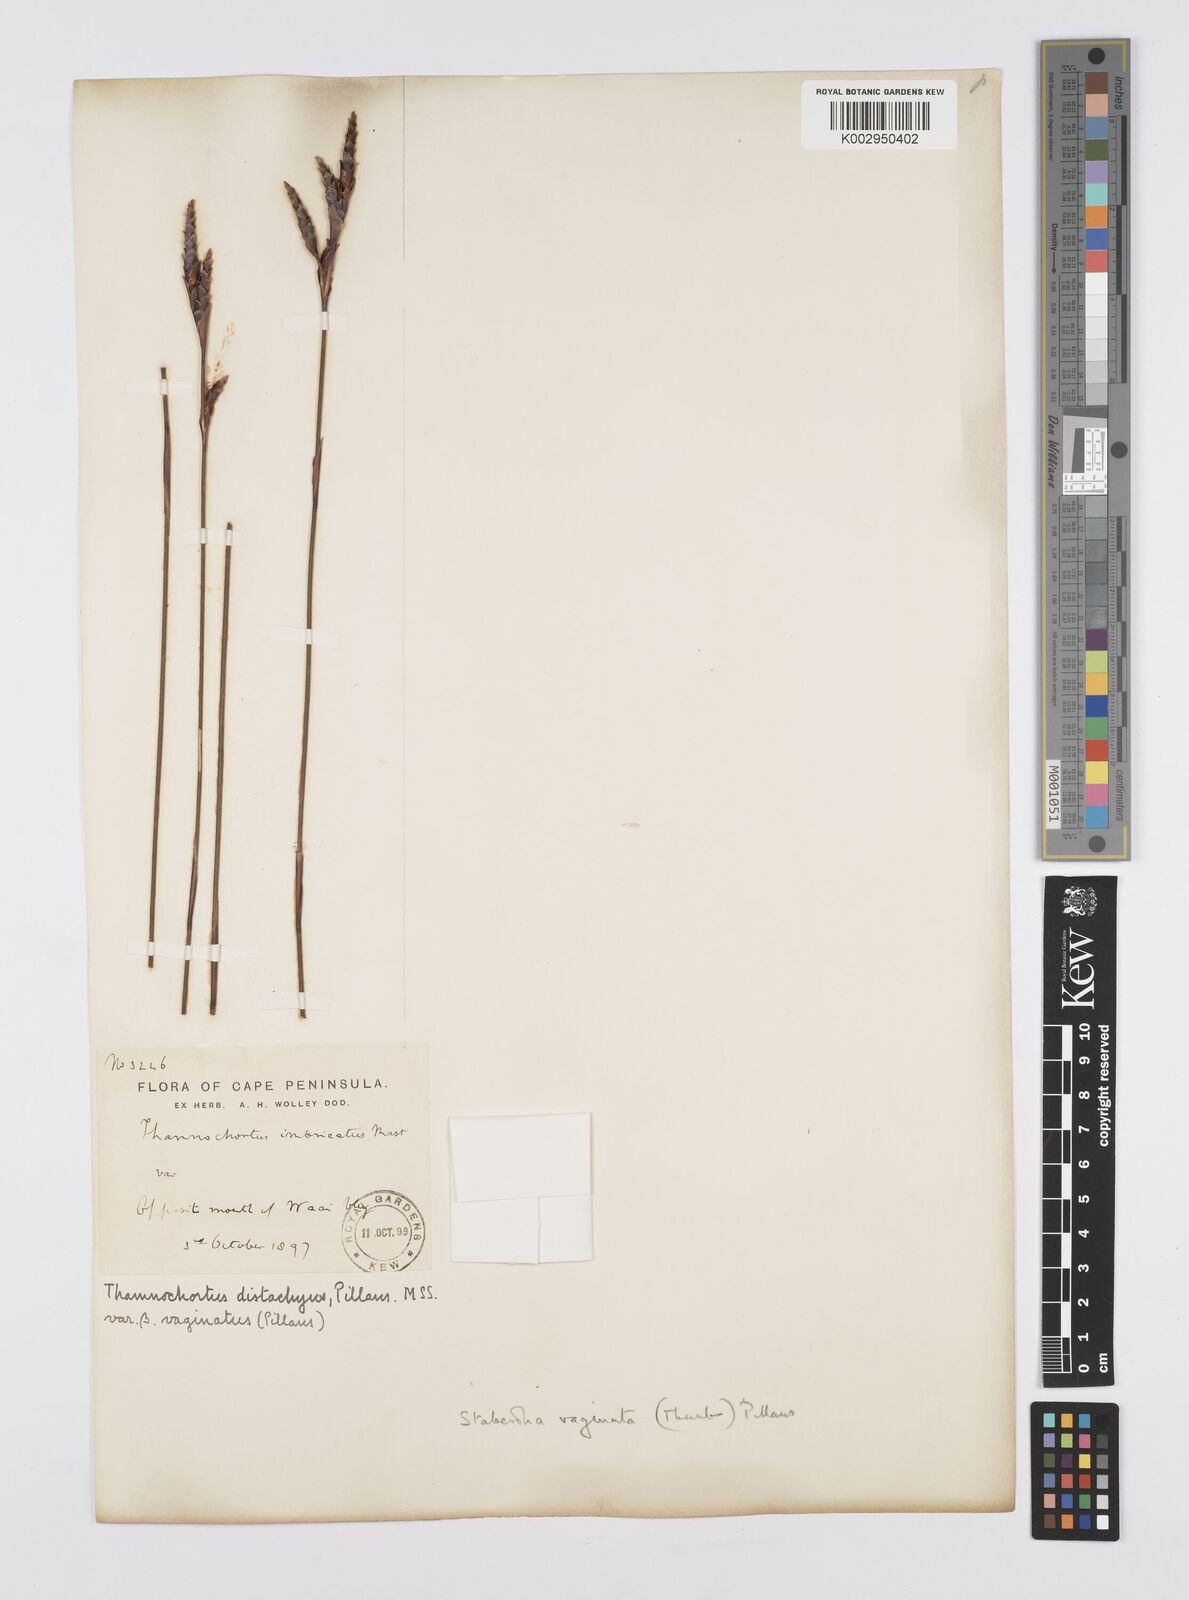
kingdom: Plantae
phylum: Tracheophyta
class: Liliopsida
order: Poales
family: Restionaceae
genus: Staberoha
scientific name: Staberoha vaginata
